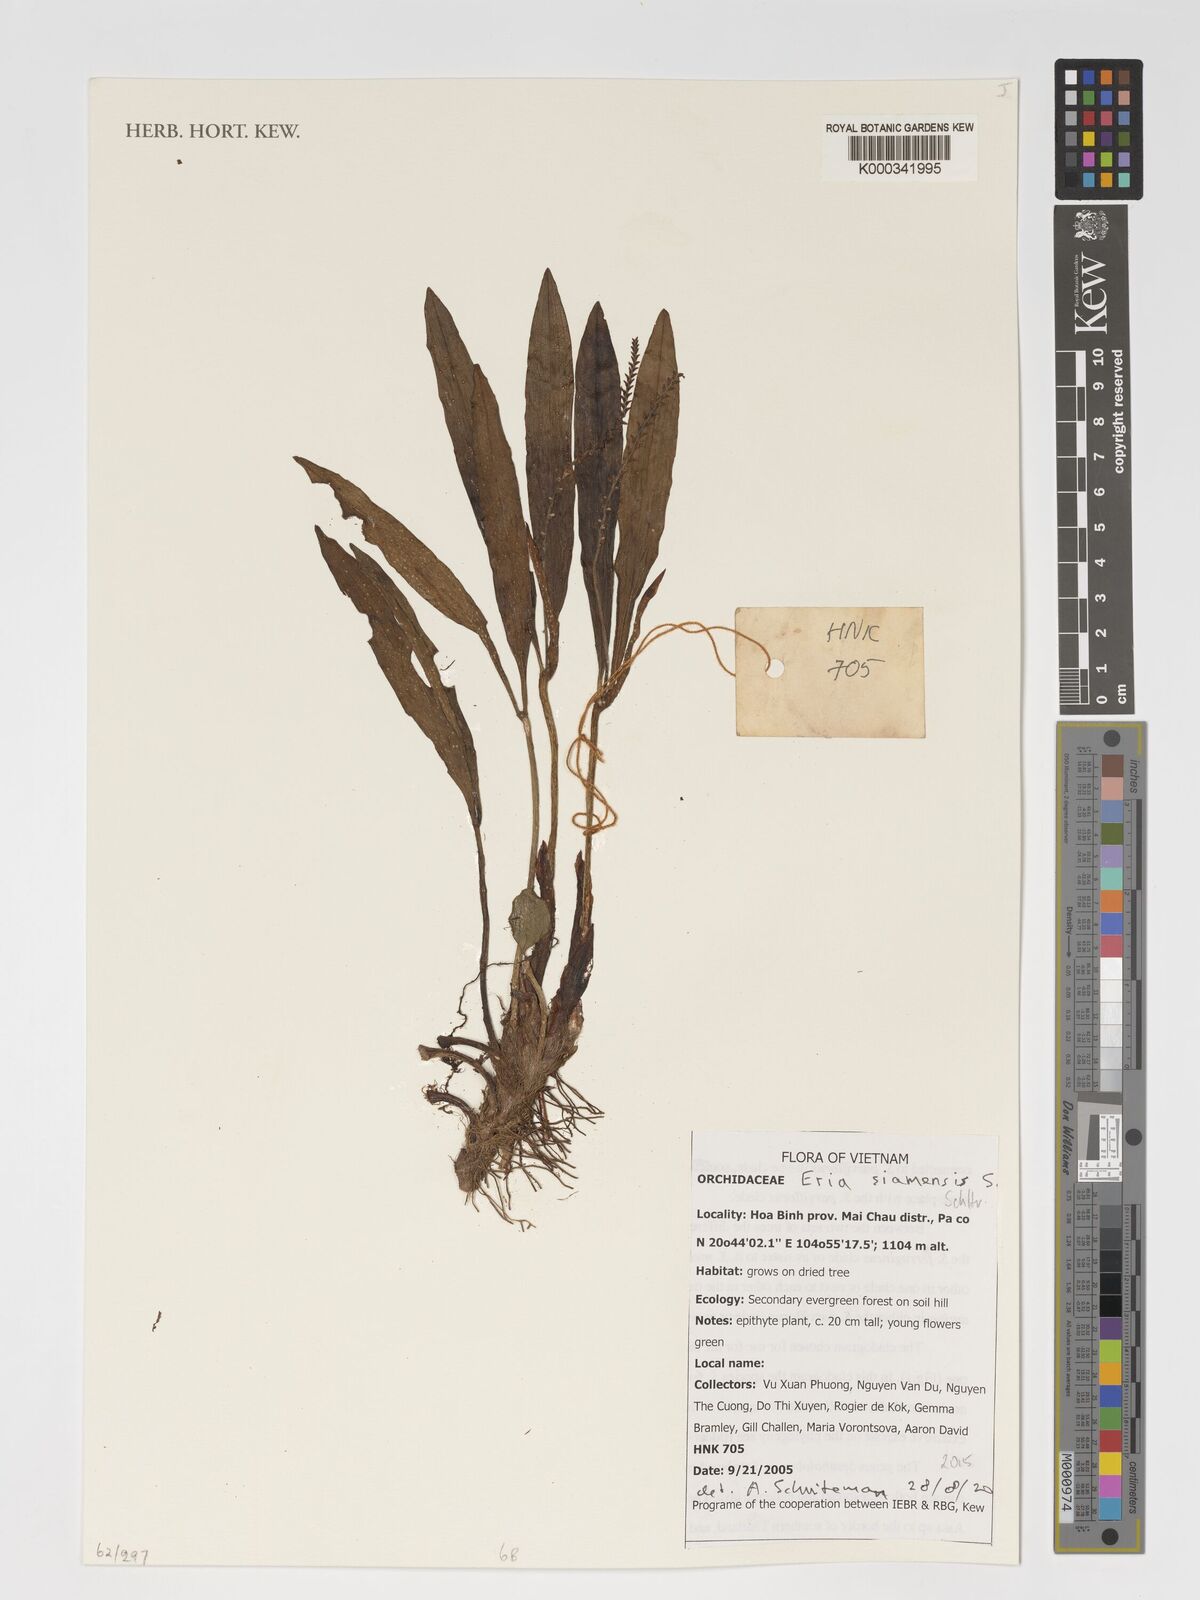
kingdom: Plantae
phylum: Tracheophyta
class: Liliopsida
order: Asparagales
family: Orchidaceae
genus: Cryptochilus
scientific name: Cryptochilus siamensis
